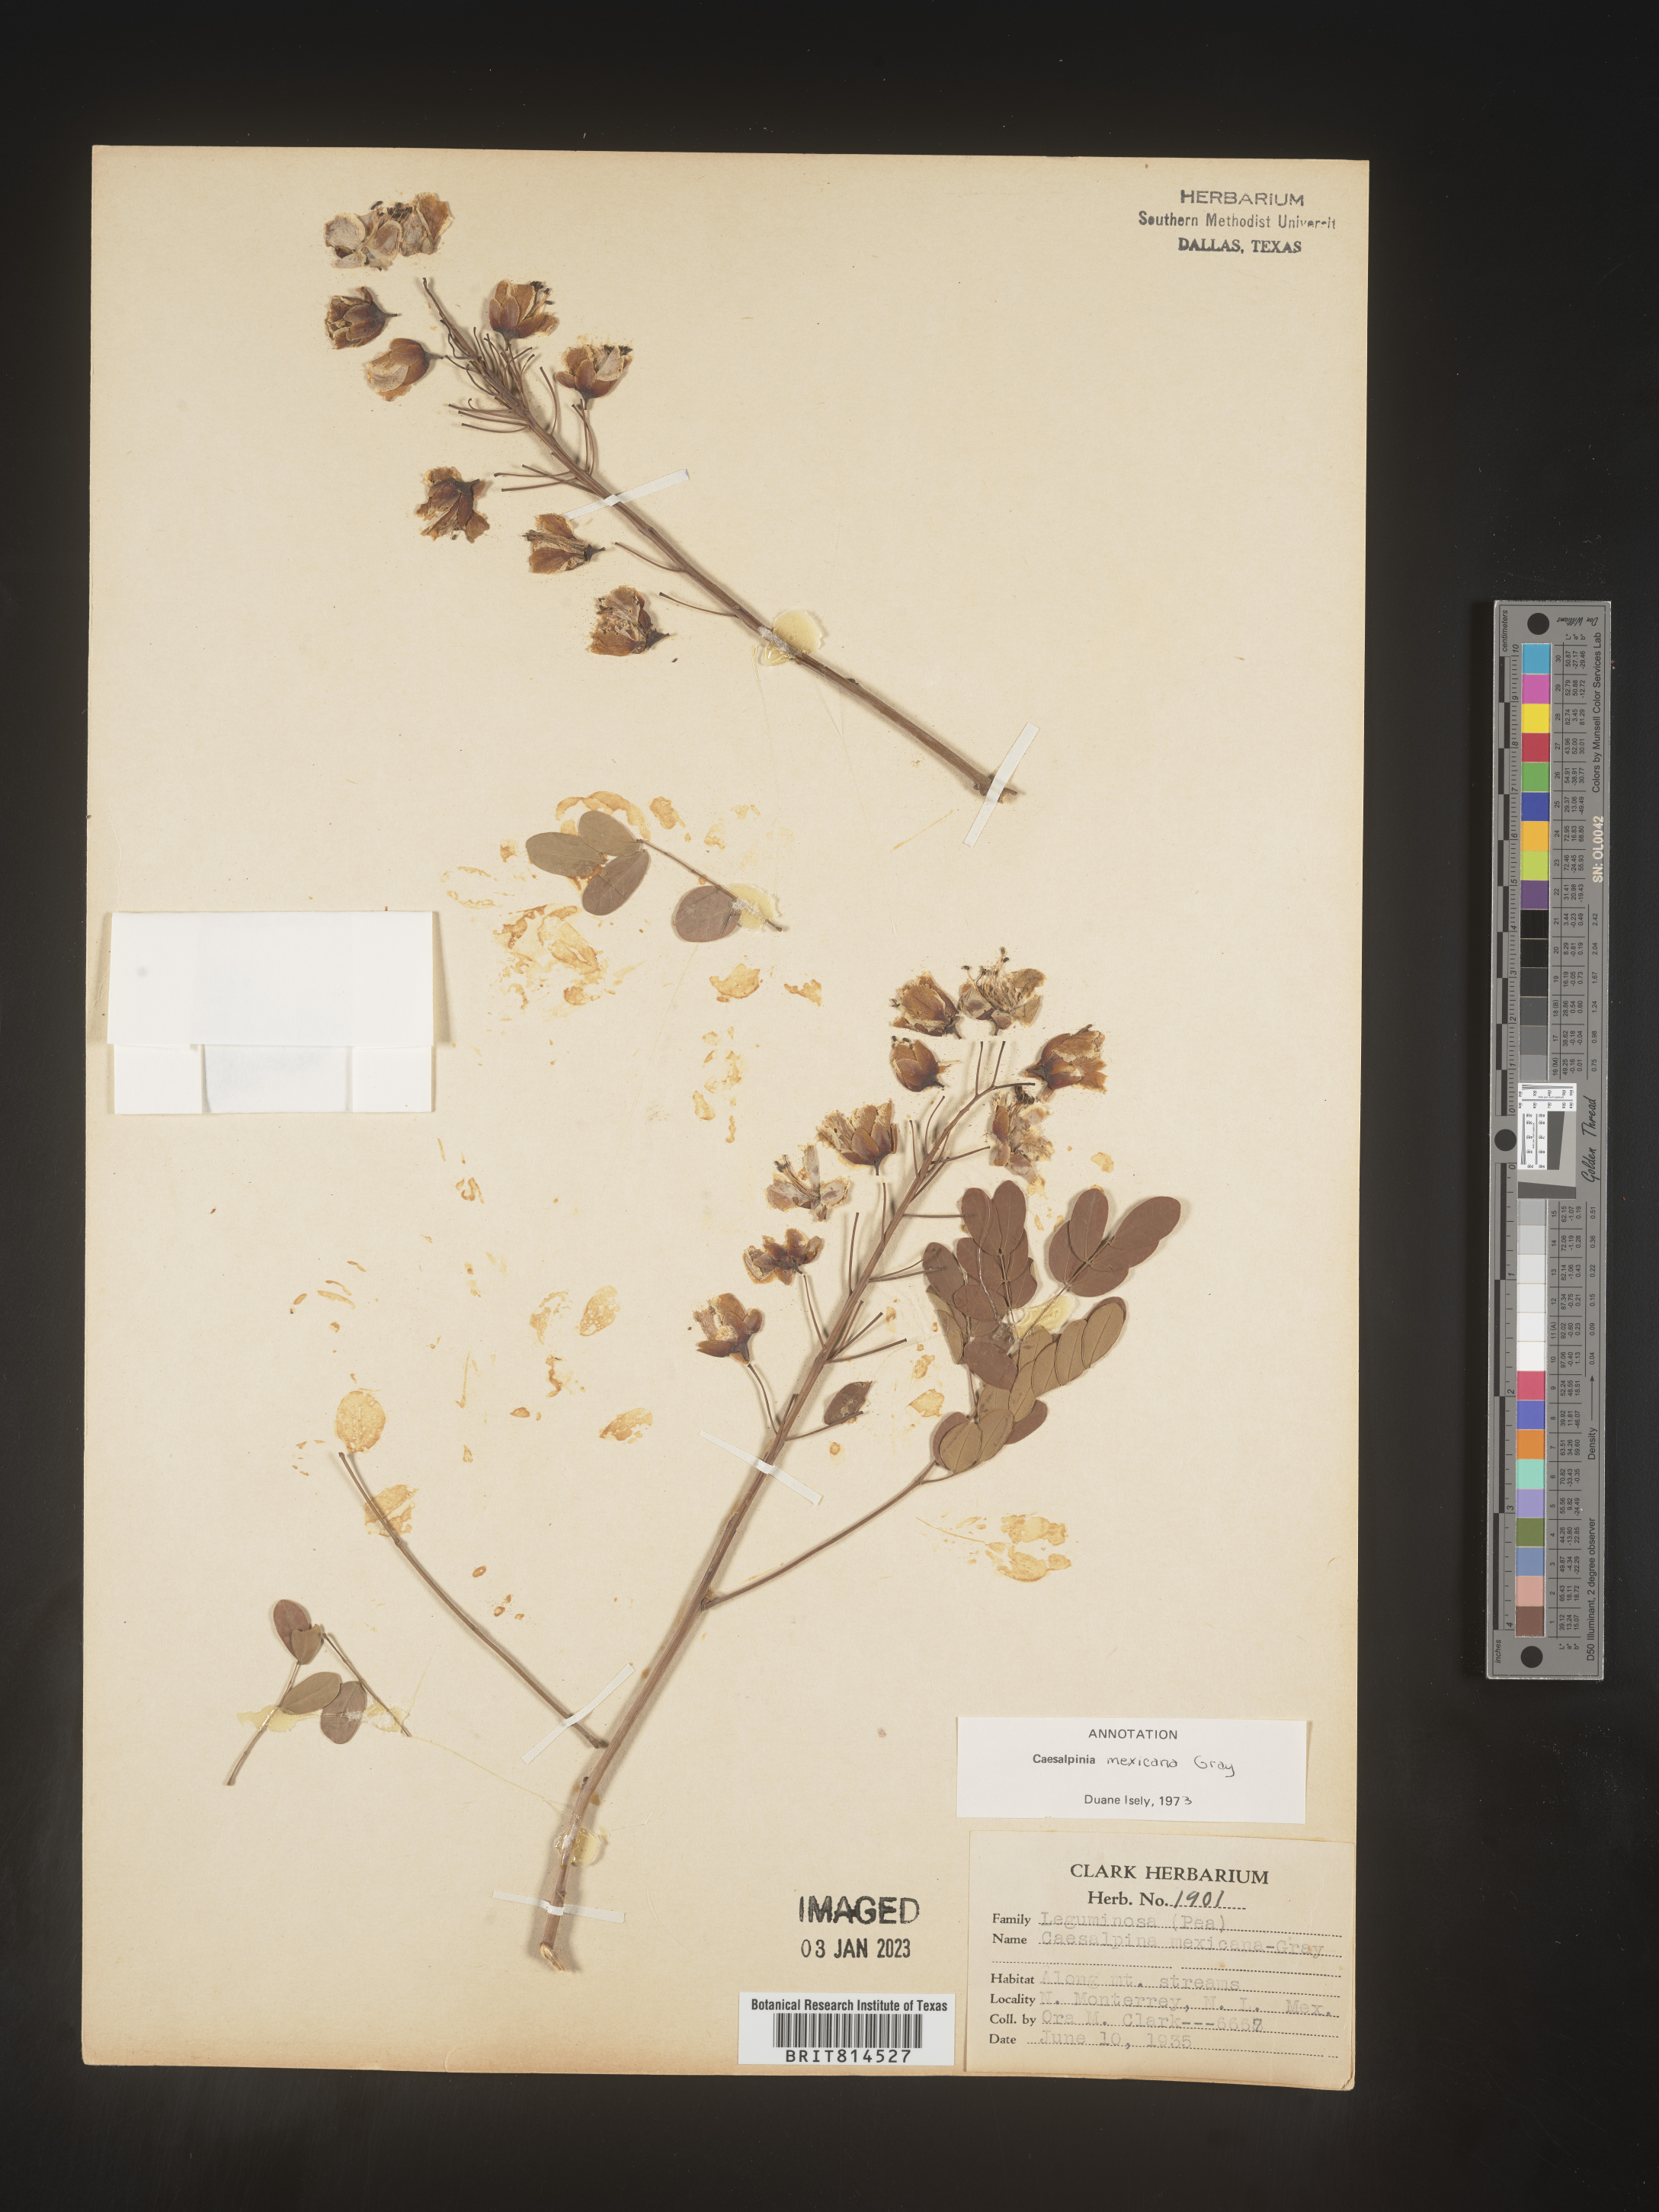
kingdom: Plantae
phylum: Tracheophyta
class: Magnoliopsida
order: Fabales
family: Fabaceae
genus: Caesalpinia
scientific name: Caesalpinia
